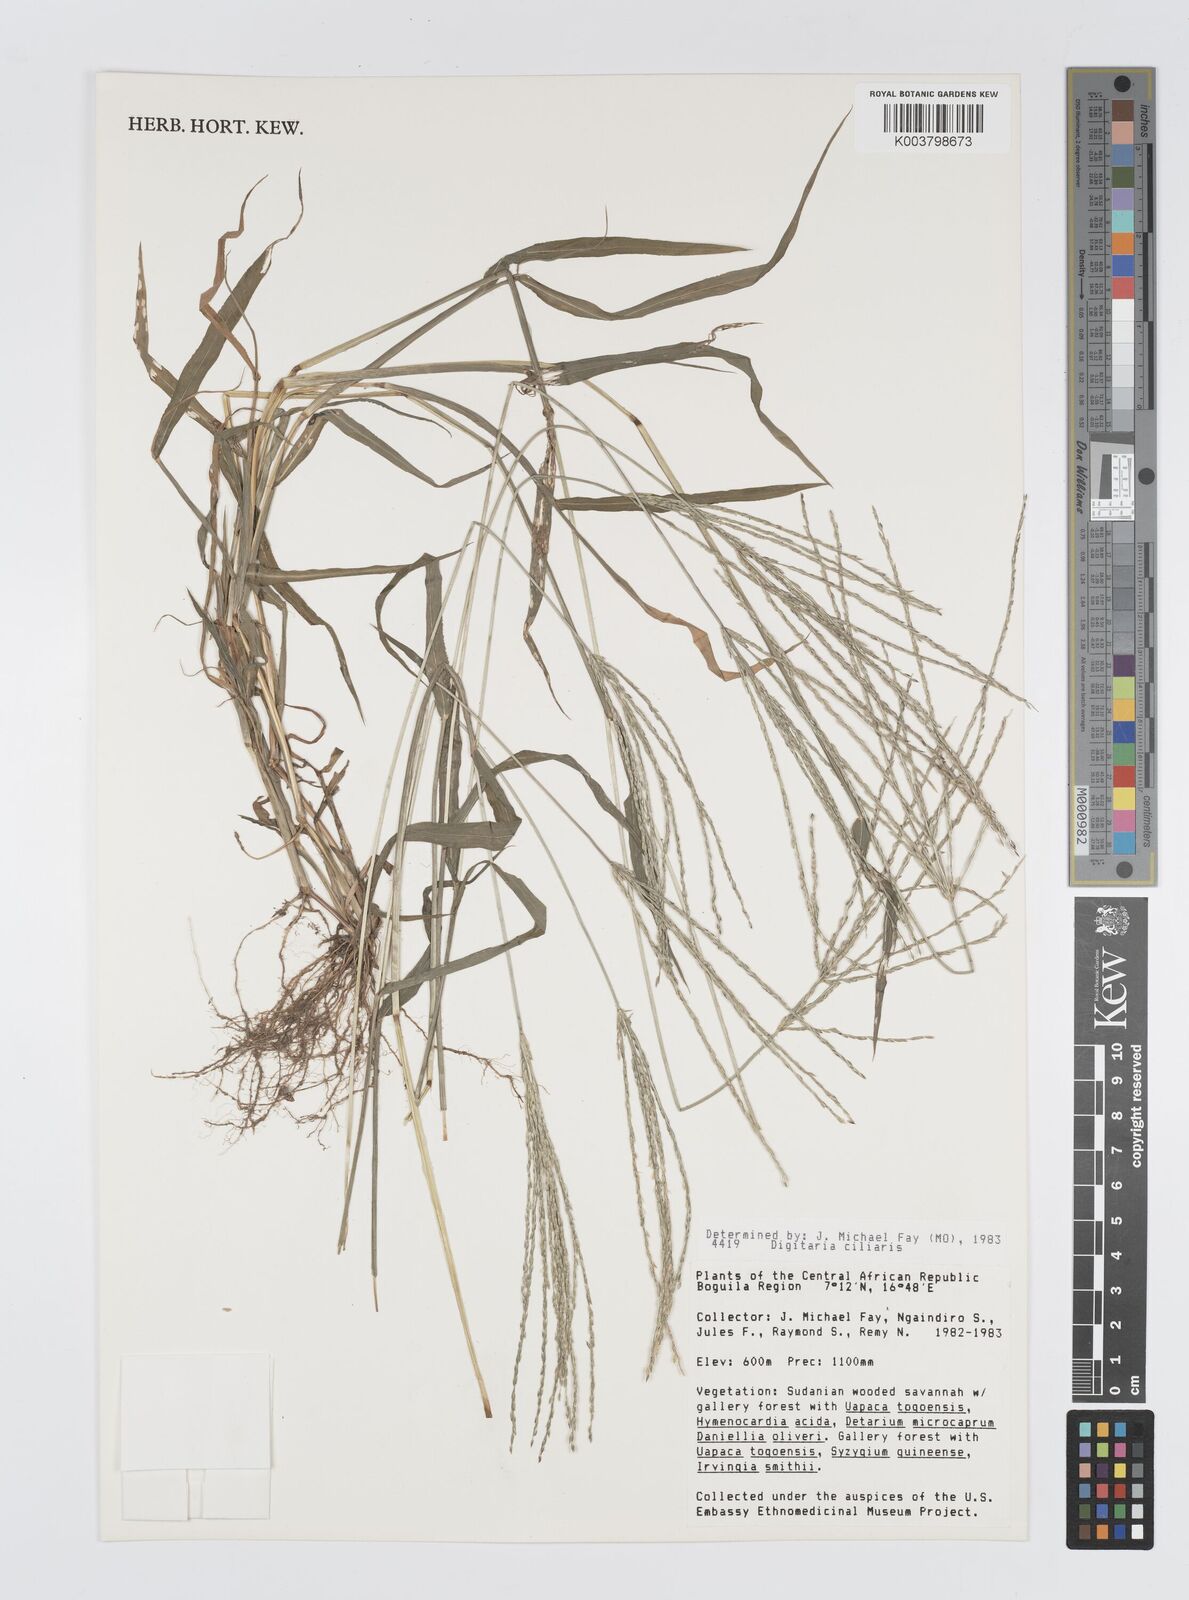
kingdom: Plantae
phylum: Tracheophyta
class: Liliopsida
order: Poales
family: Poaceae
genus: Digitaria
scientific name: Digitaria ciliaris
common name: Tropical finger-grass
